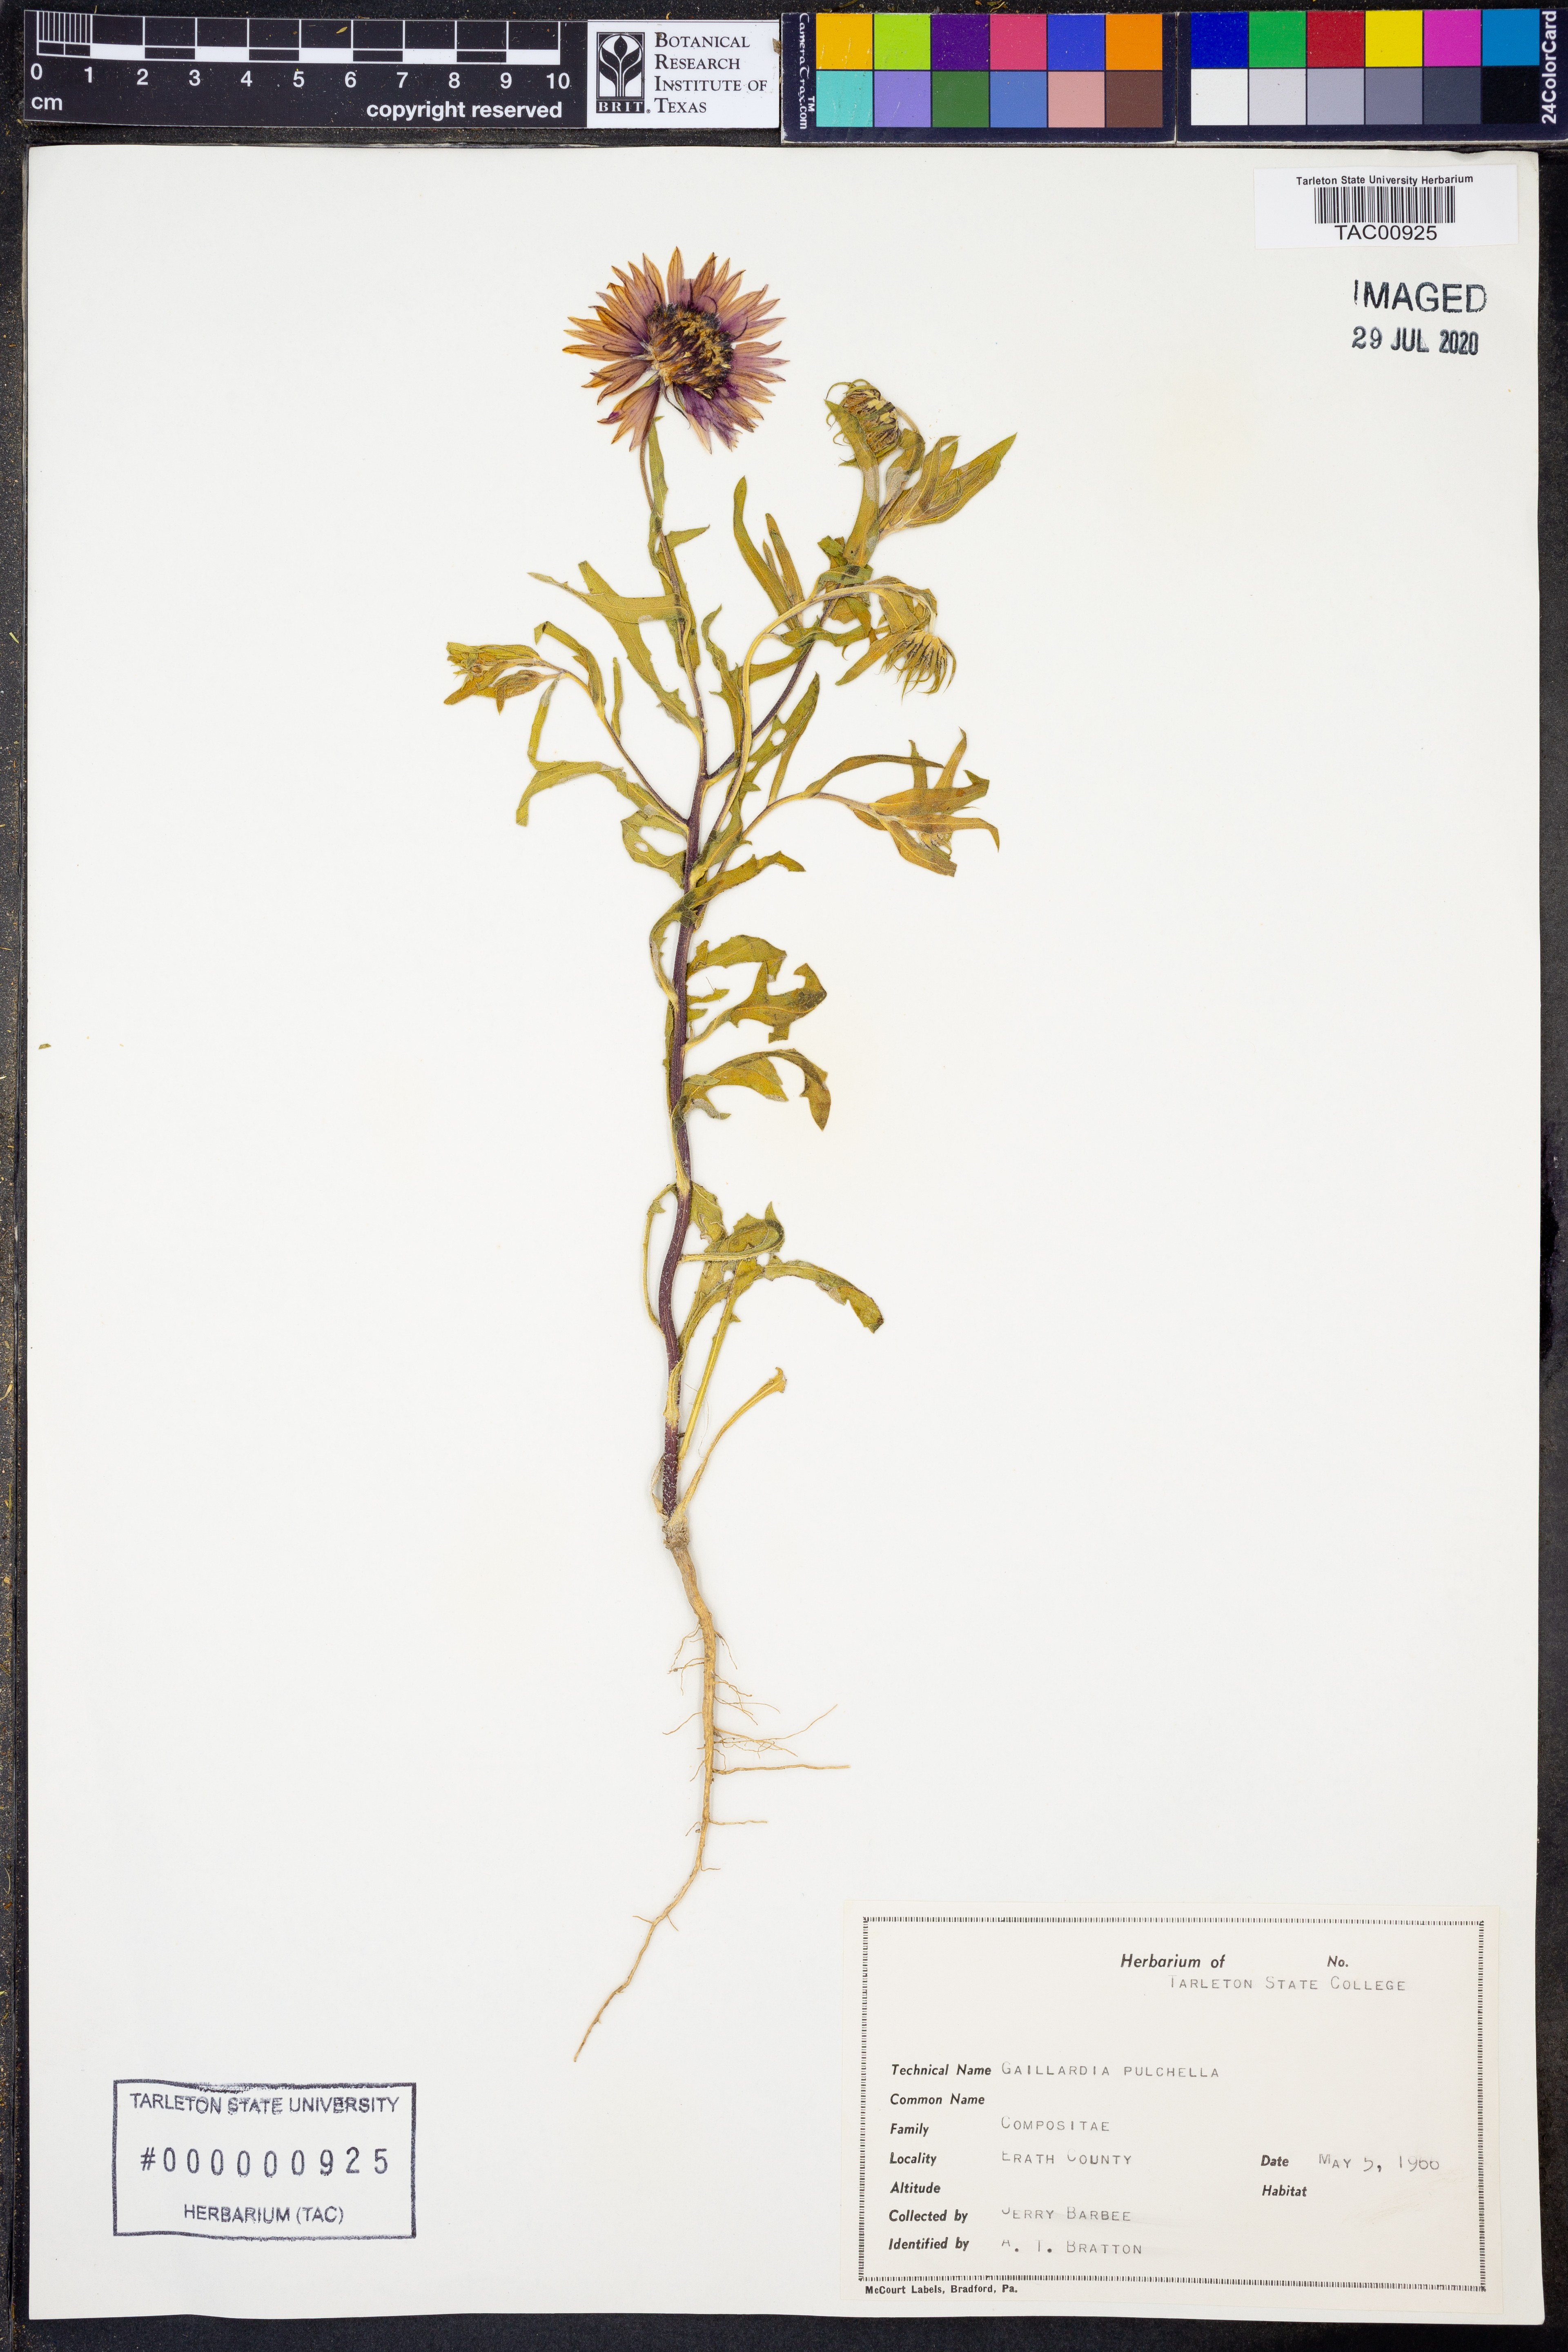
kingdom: Plantae
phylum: Tracheophyta
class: Magnoliopsida
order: Asterales
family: Asteraceae
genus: Gaillardia
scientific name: Gaillardia pulchella
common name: Firewheel
